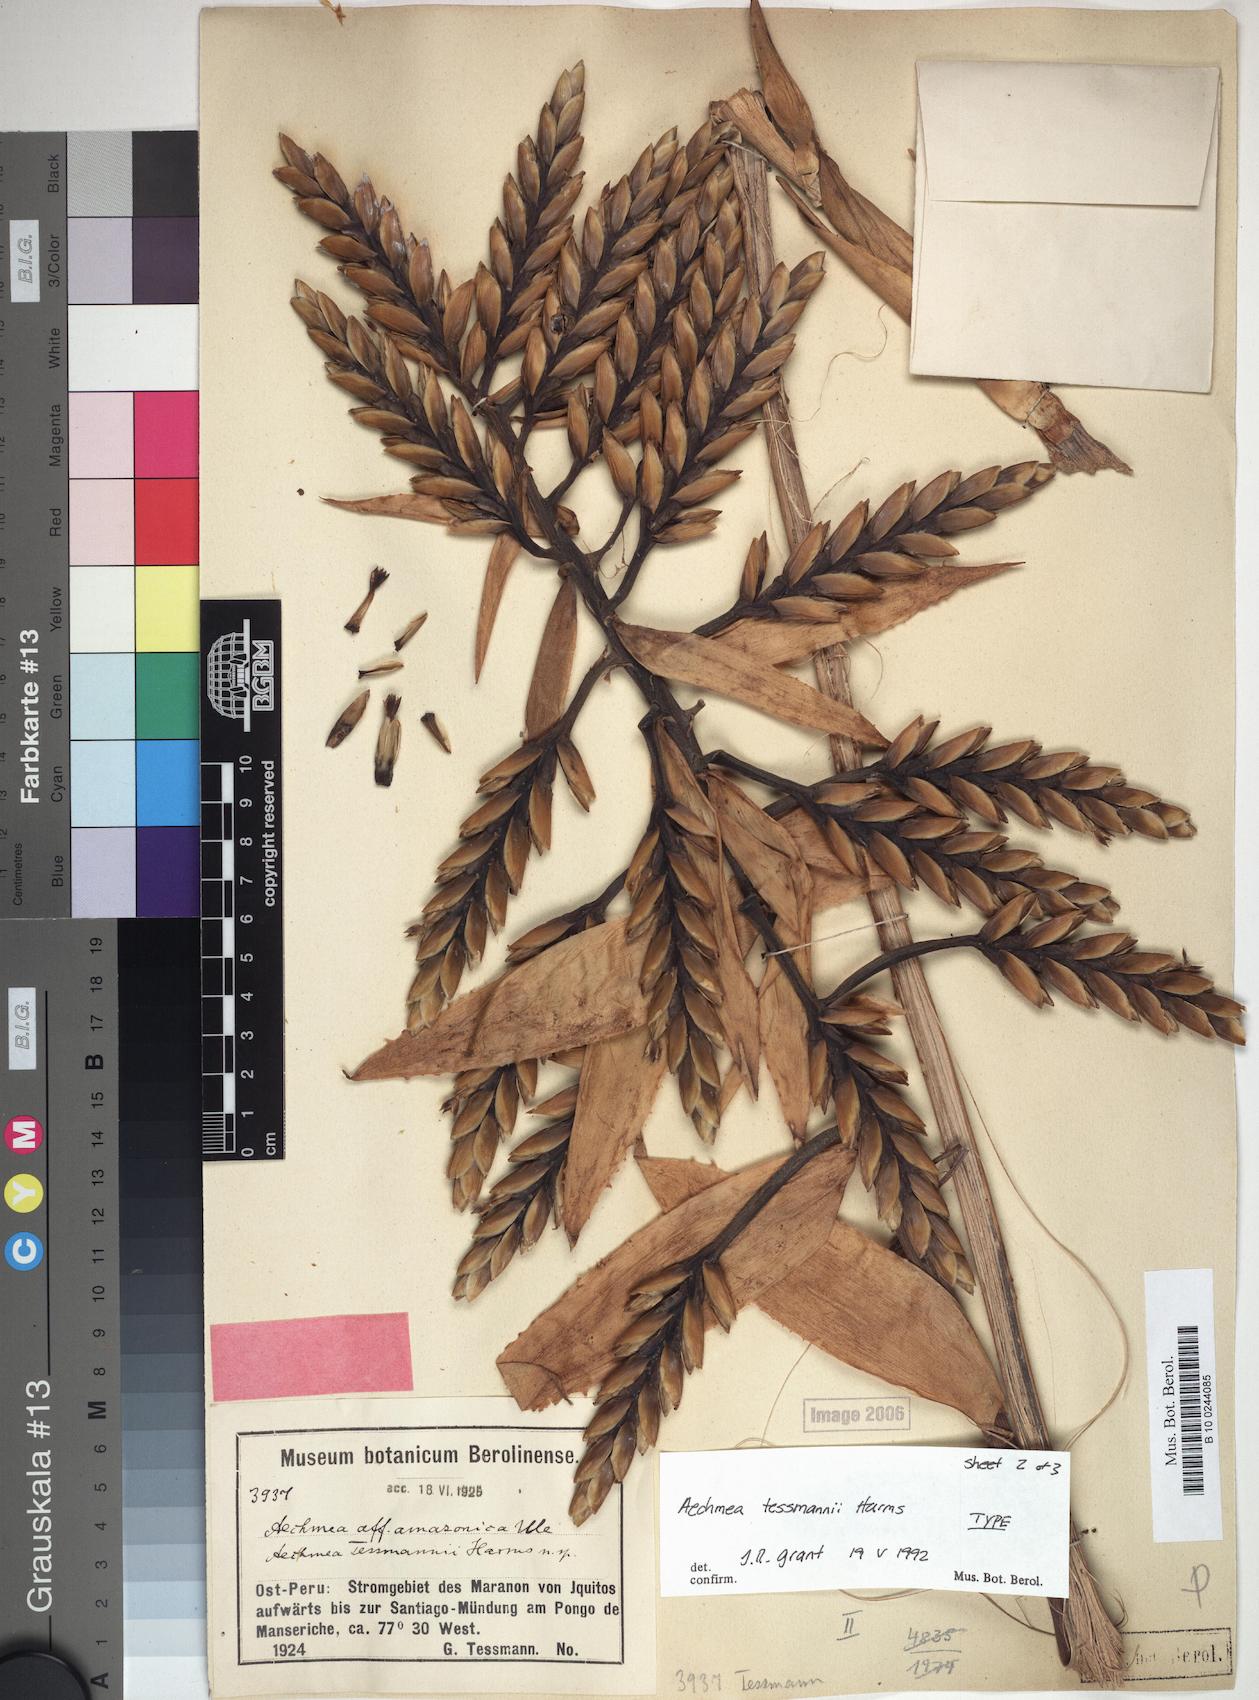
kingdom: Plantae
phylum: Tracheophyta
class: Liliopsida
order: Poales
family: Bromeliaceae
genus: Aechmea
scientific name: Aechmea tessmannii
